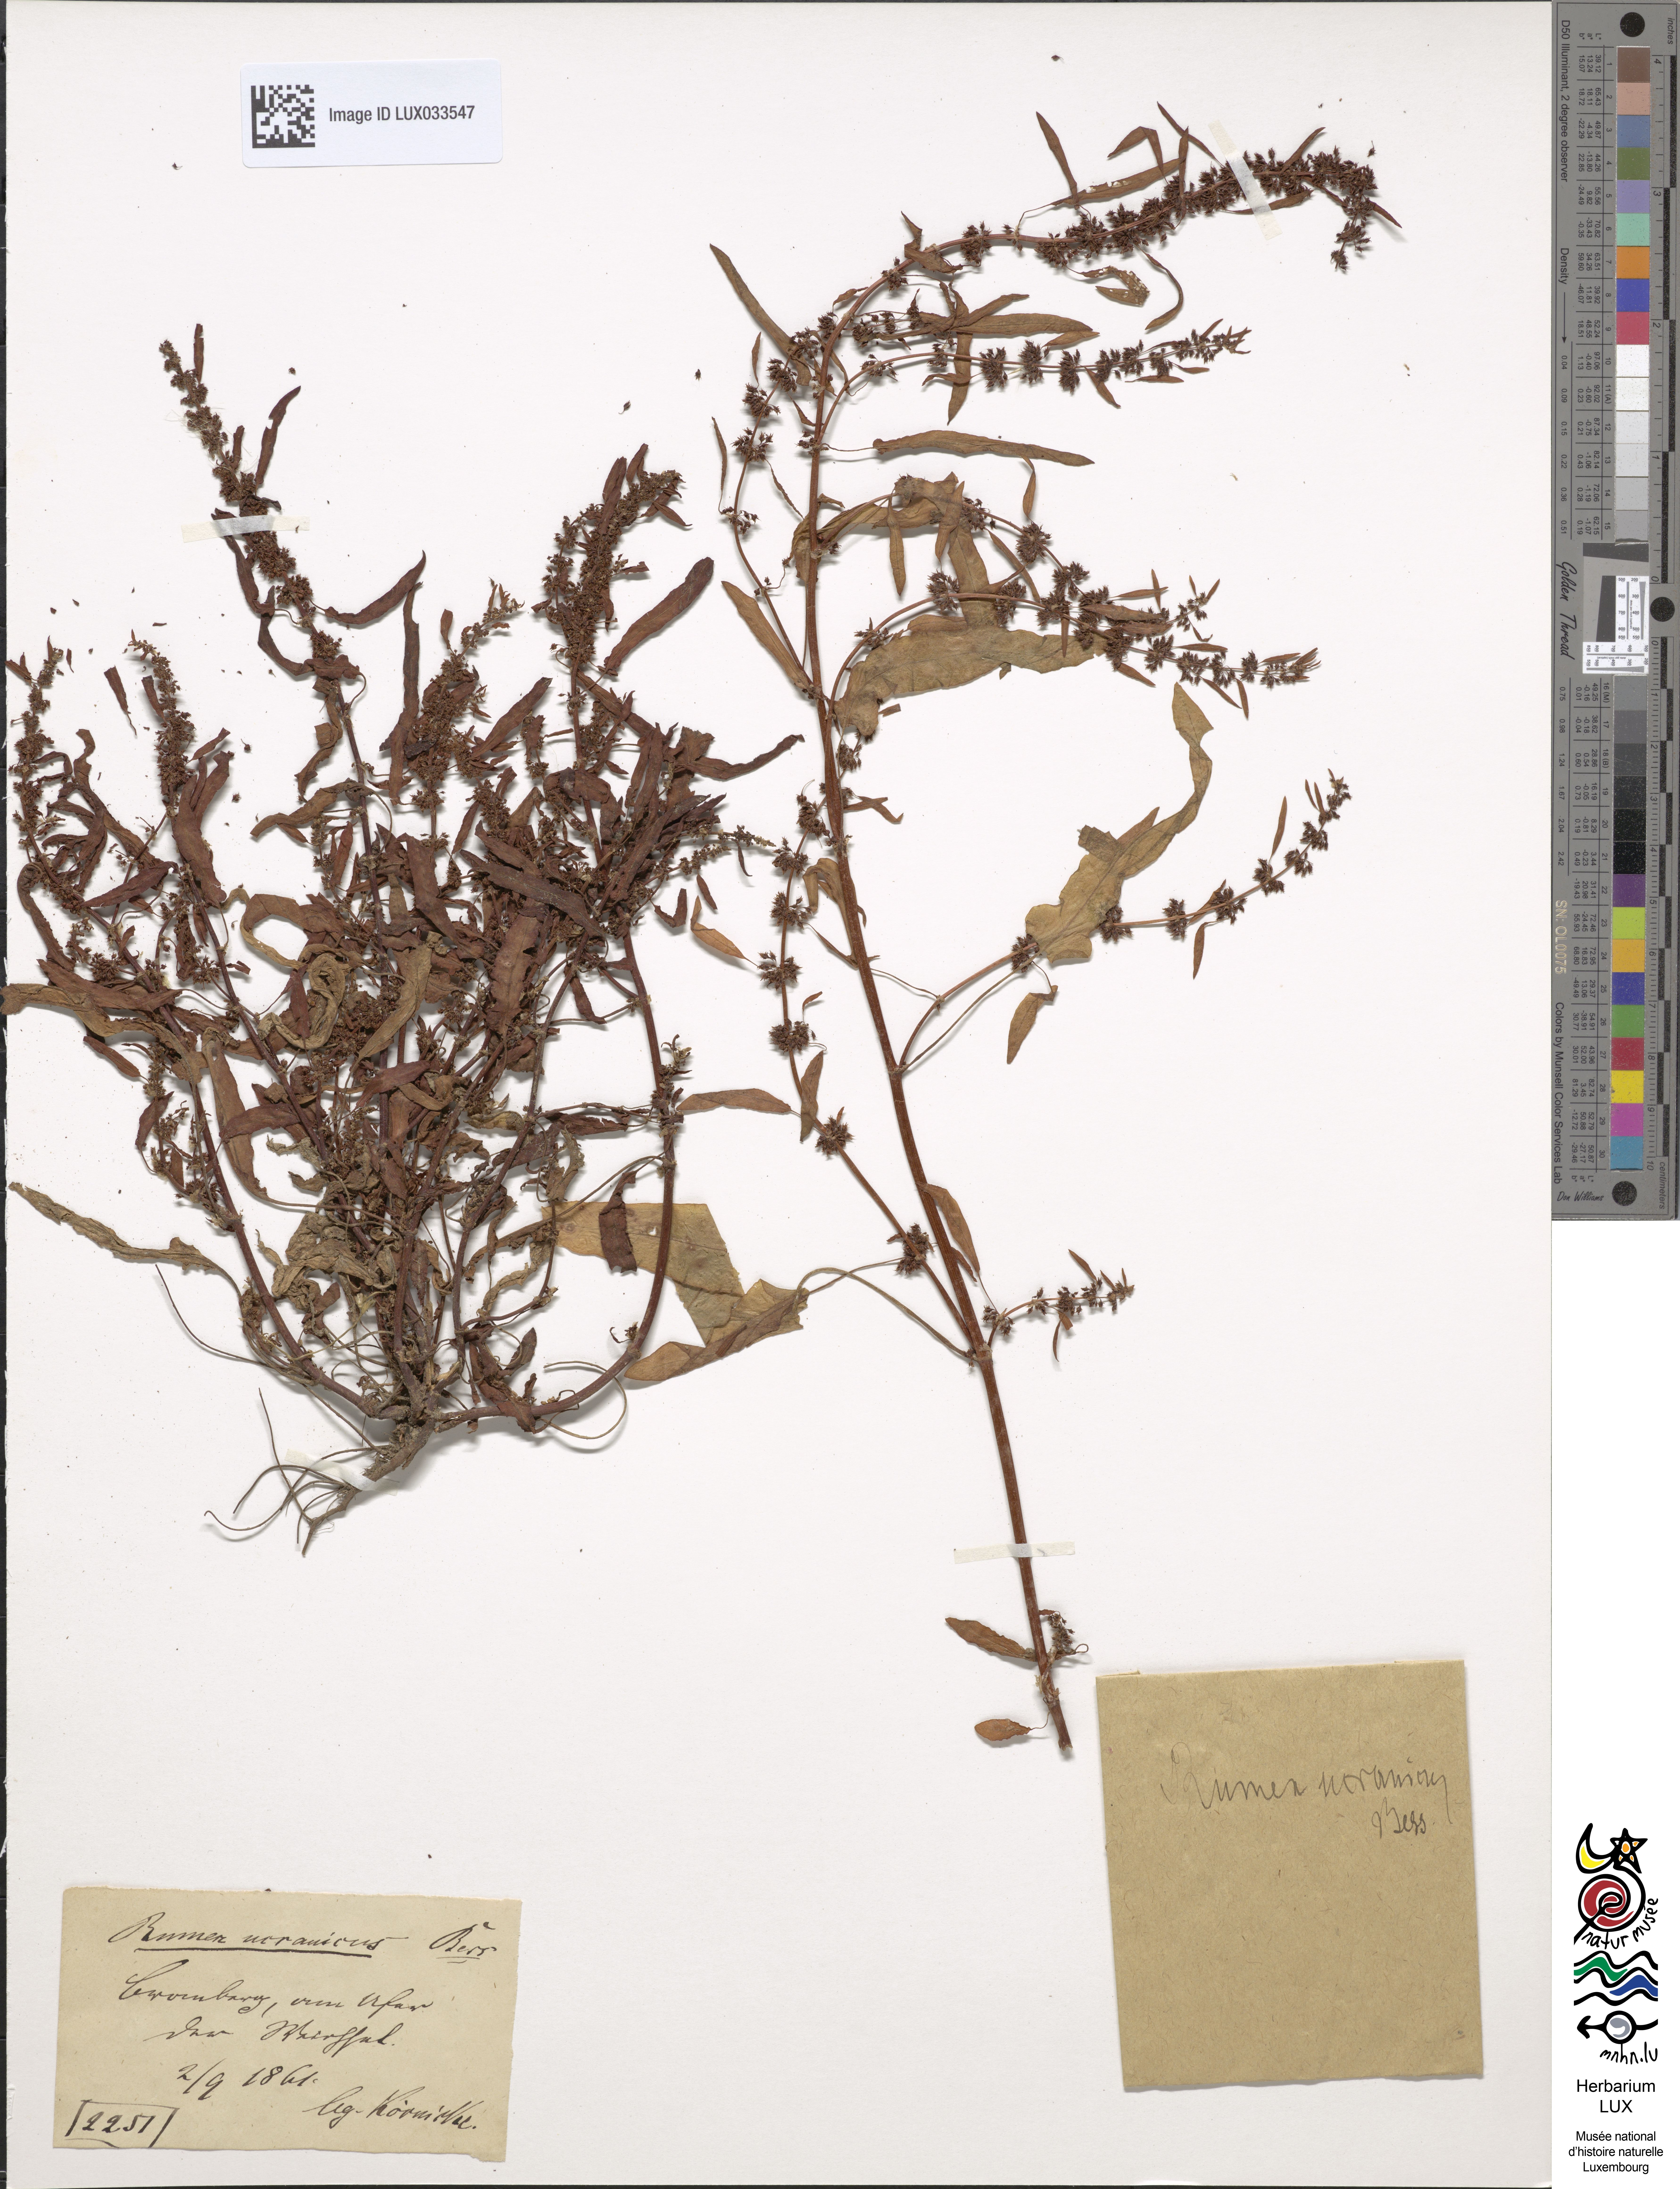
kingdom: Plantae
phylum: Tracheophyta
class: Magnoliopsida
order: Caryophyllales
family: Polygonaceae
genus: Rumex
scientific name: Rumex ucranicus
